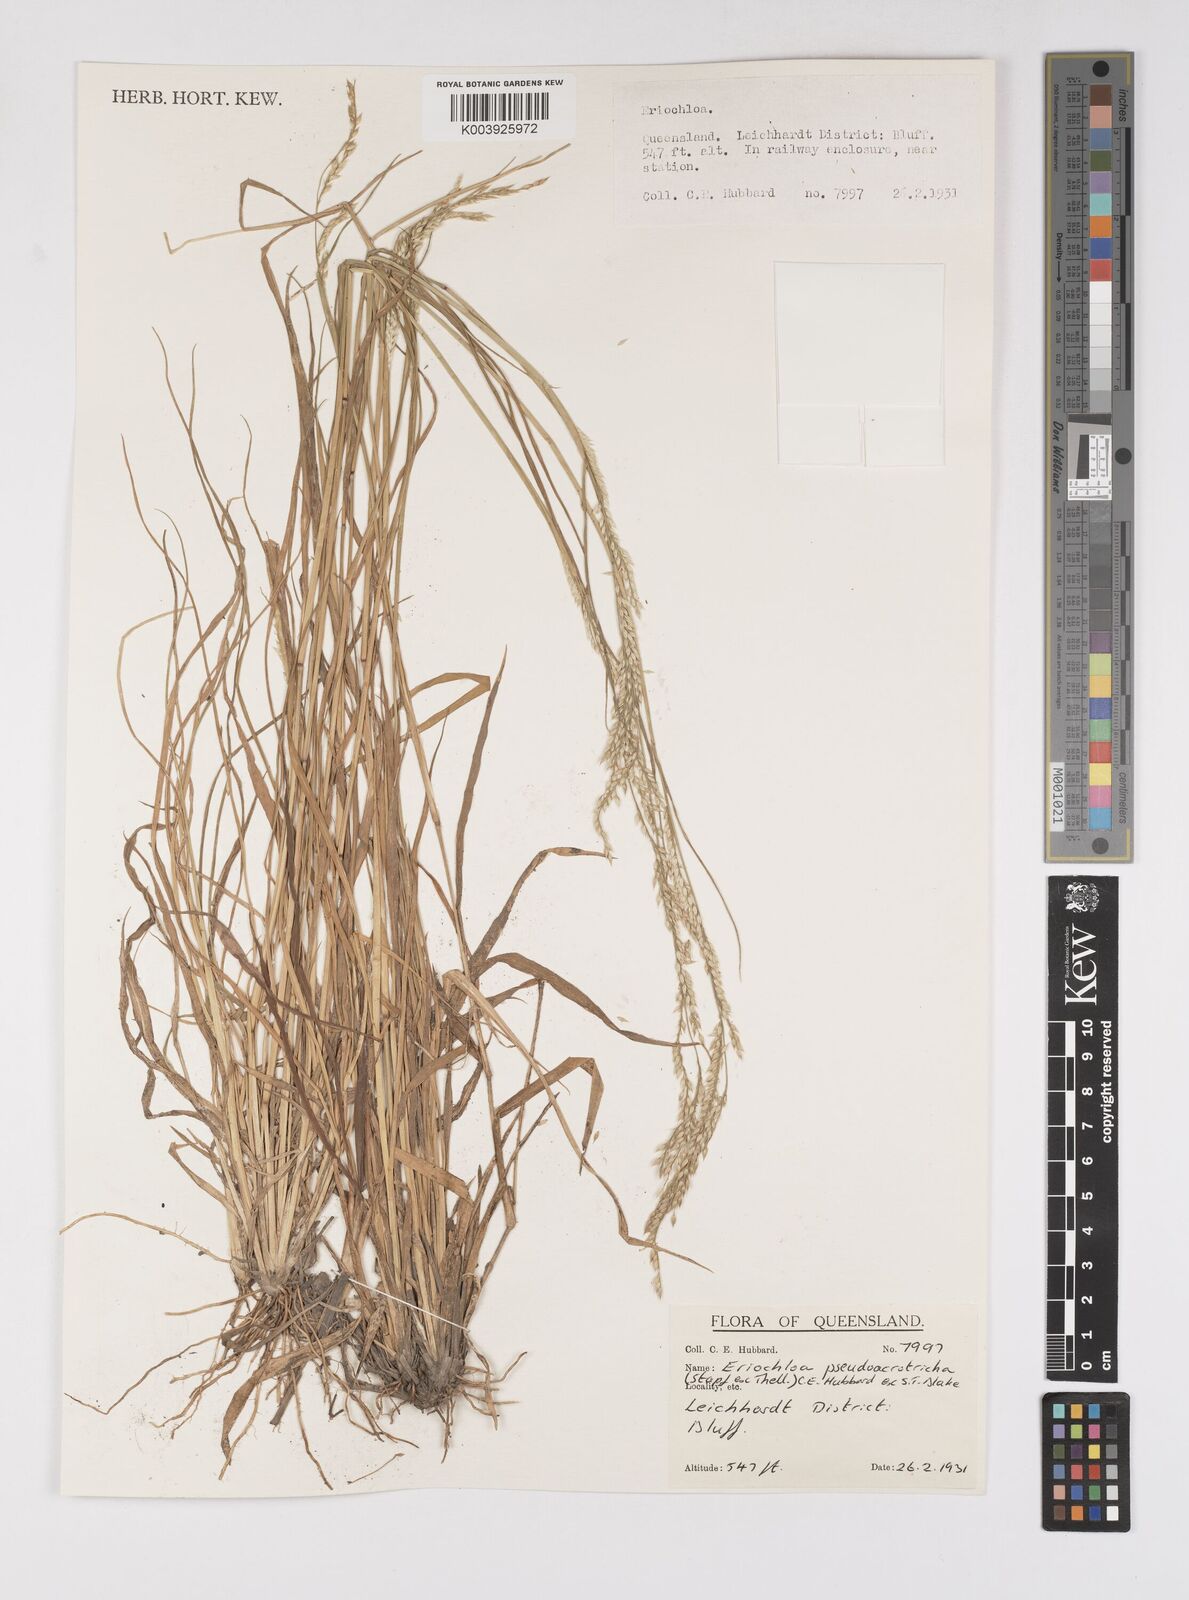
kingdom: Plantae
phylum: Tracheophyta
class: Liliopsida
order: Poales
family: Poaceae
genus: Eriochloa
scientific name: Eriochloa pseudoacrotricha
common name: Perennial cup-grass
